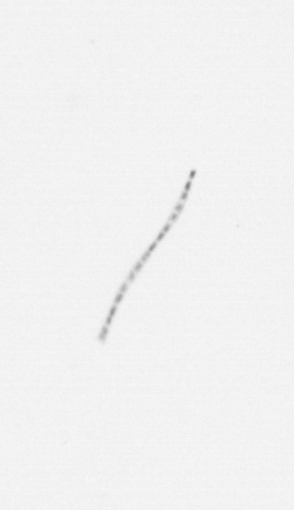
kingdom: Chromista
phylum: Ochrophyta
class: Bacillariophyceae
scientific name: Bacillariophyceae
